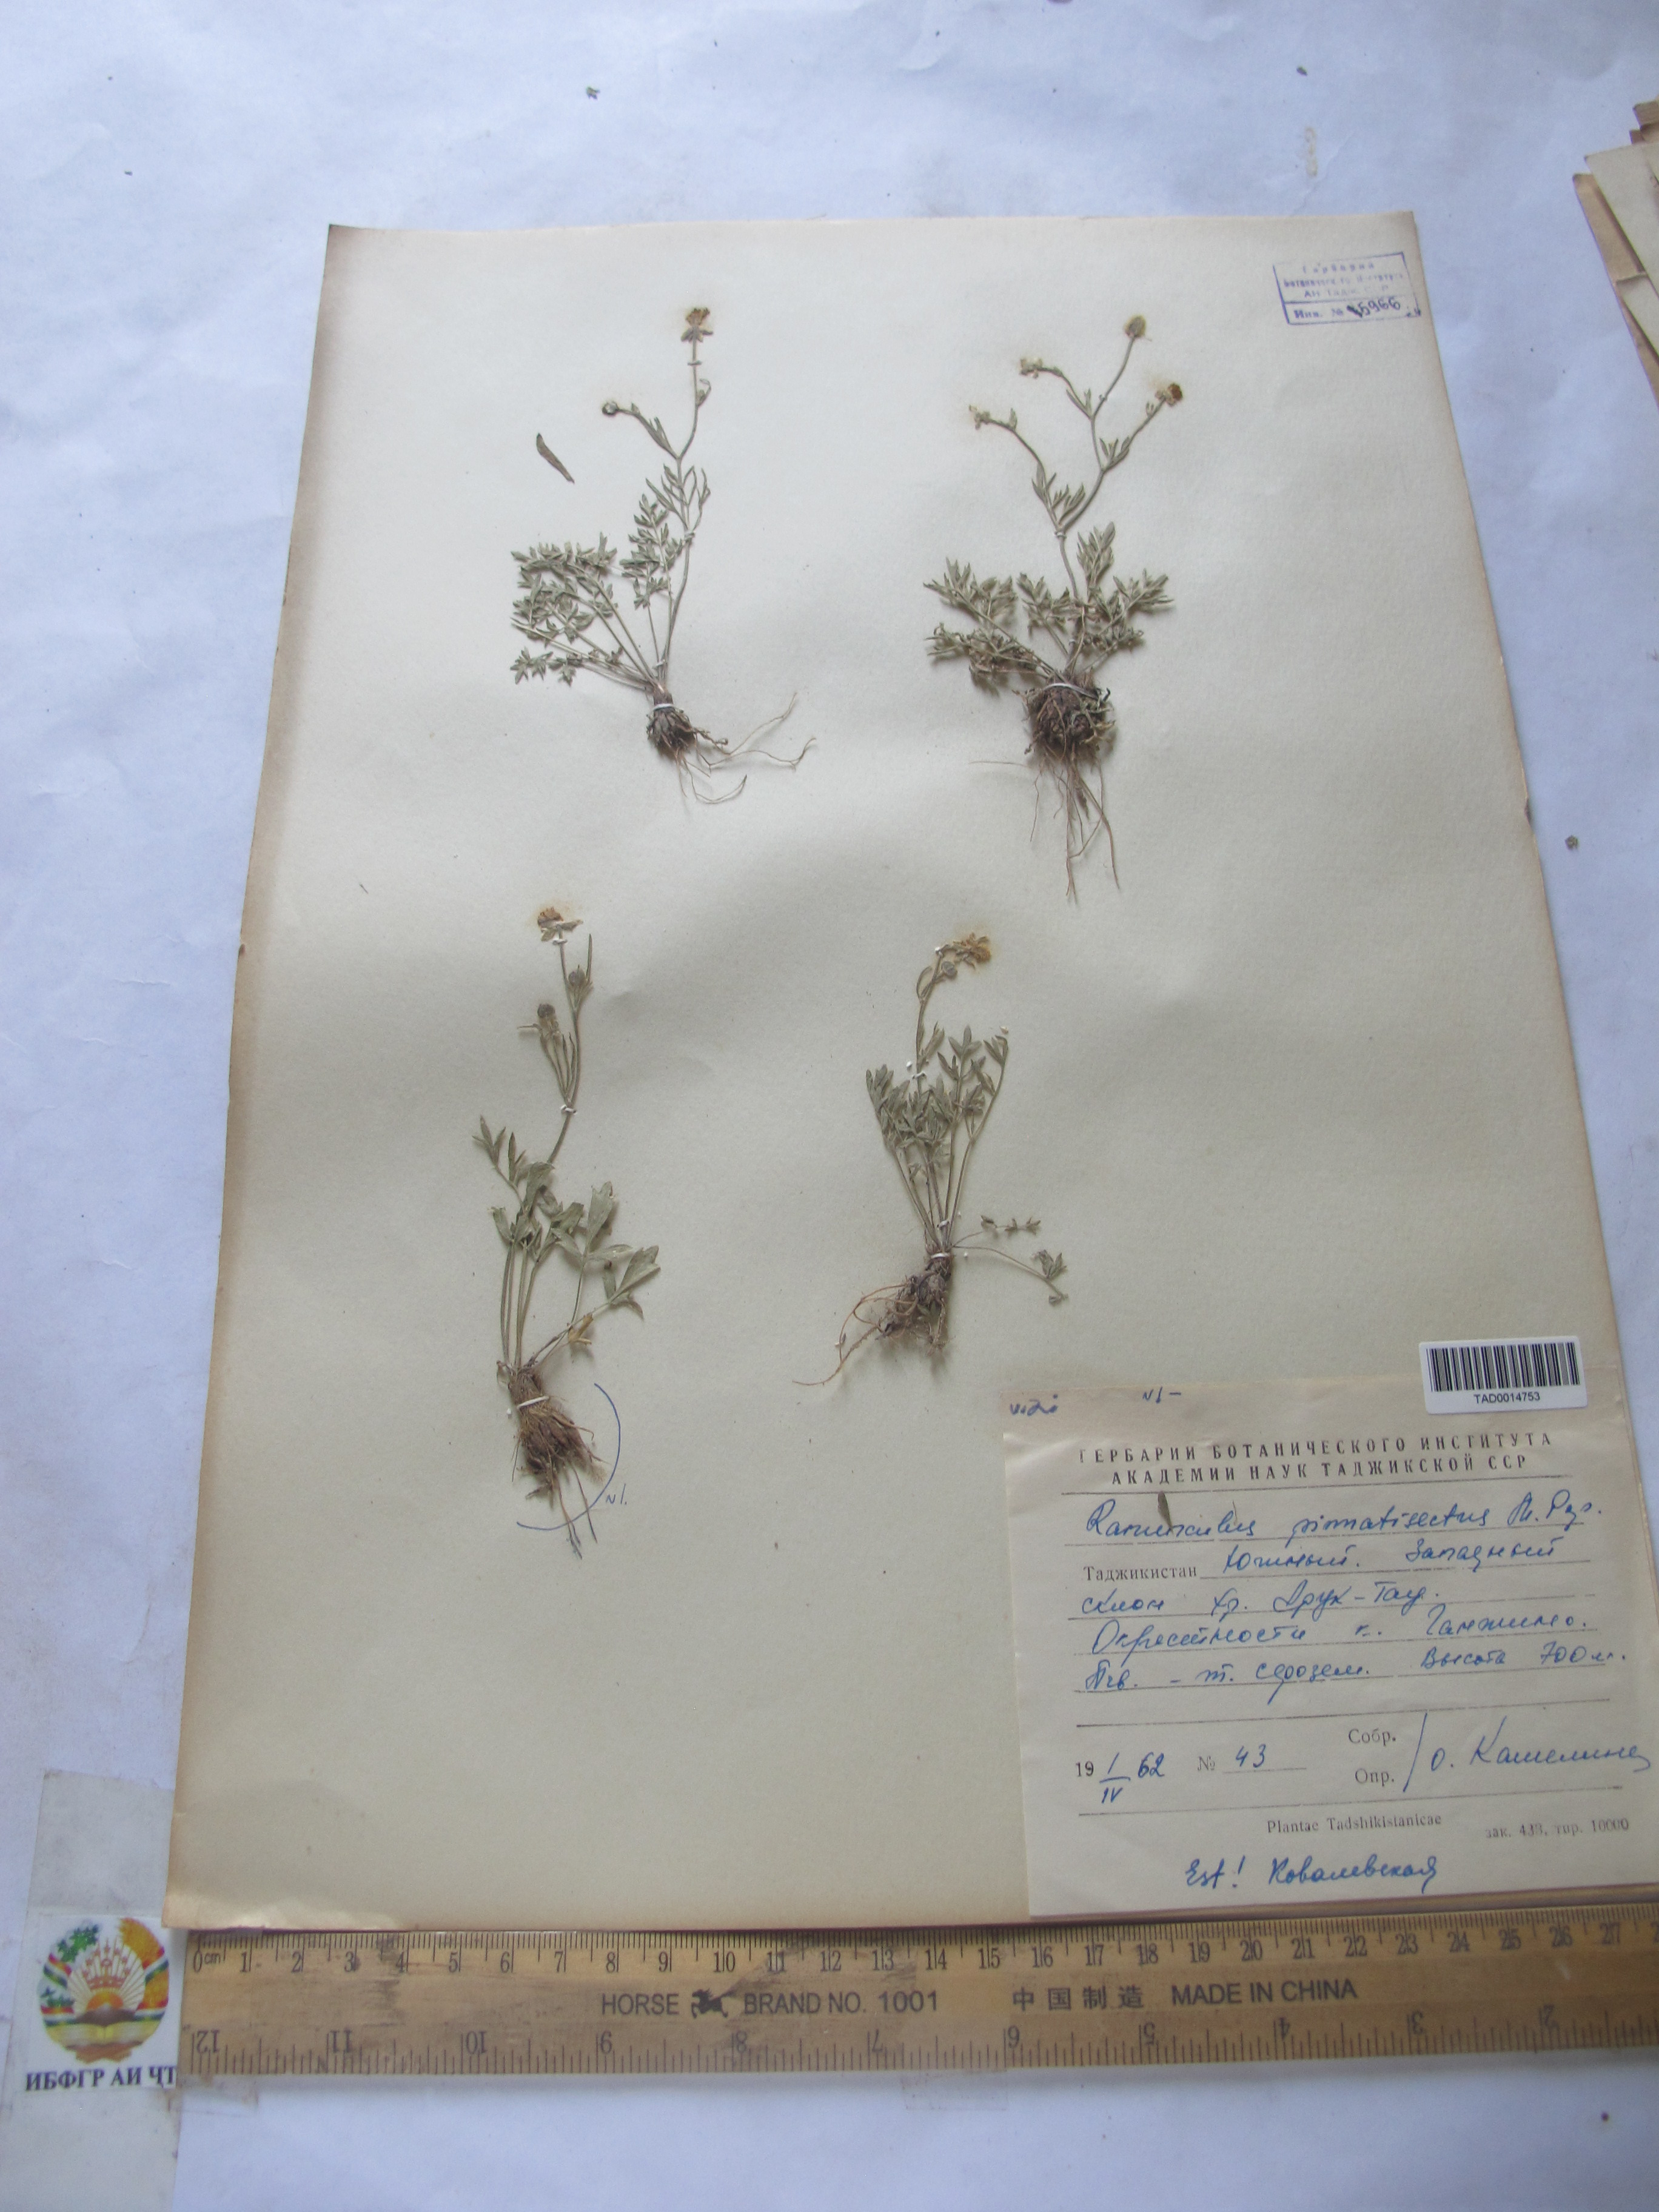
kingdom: Plantae
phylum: Tracheophyta
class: Magnoliopsida
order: Ranunculales
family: Ranunculaceae
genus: Ranunculus
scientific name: Ranunculus pinnatisectus
